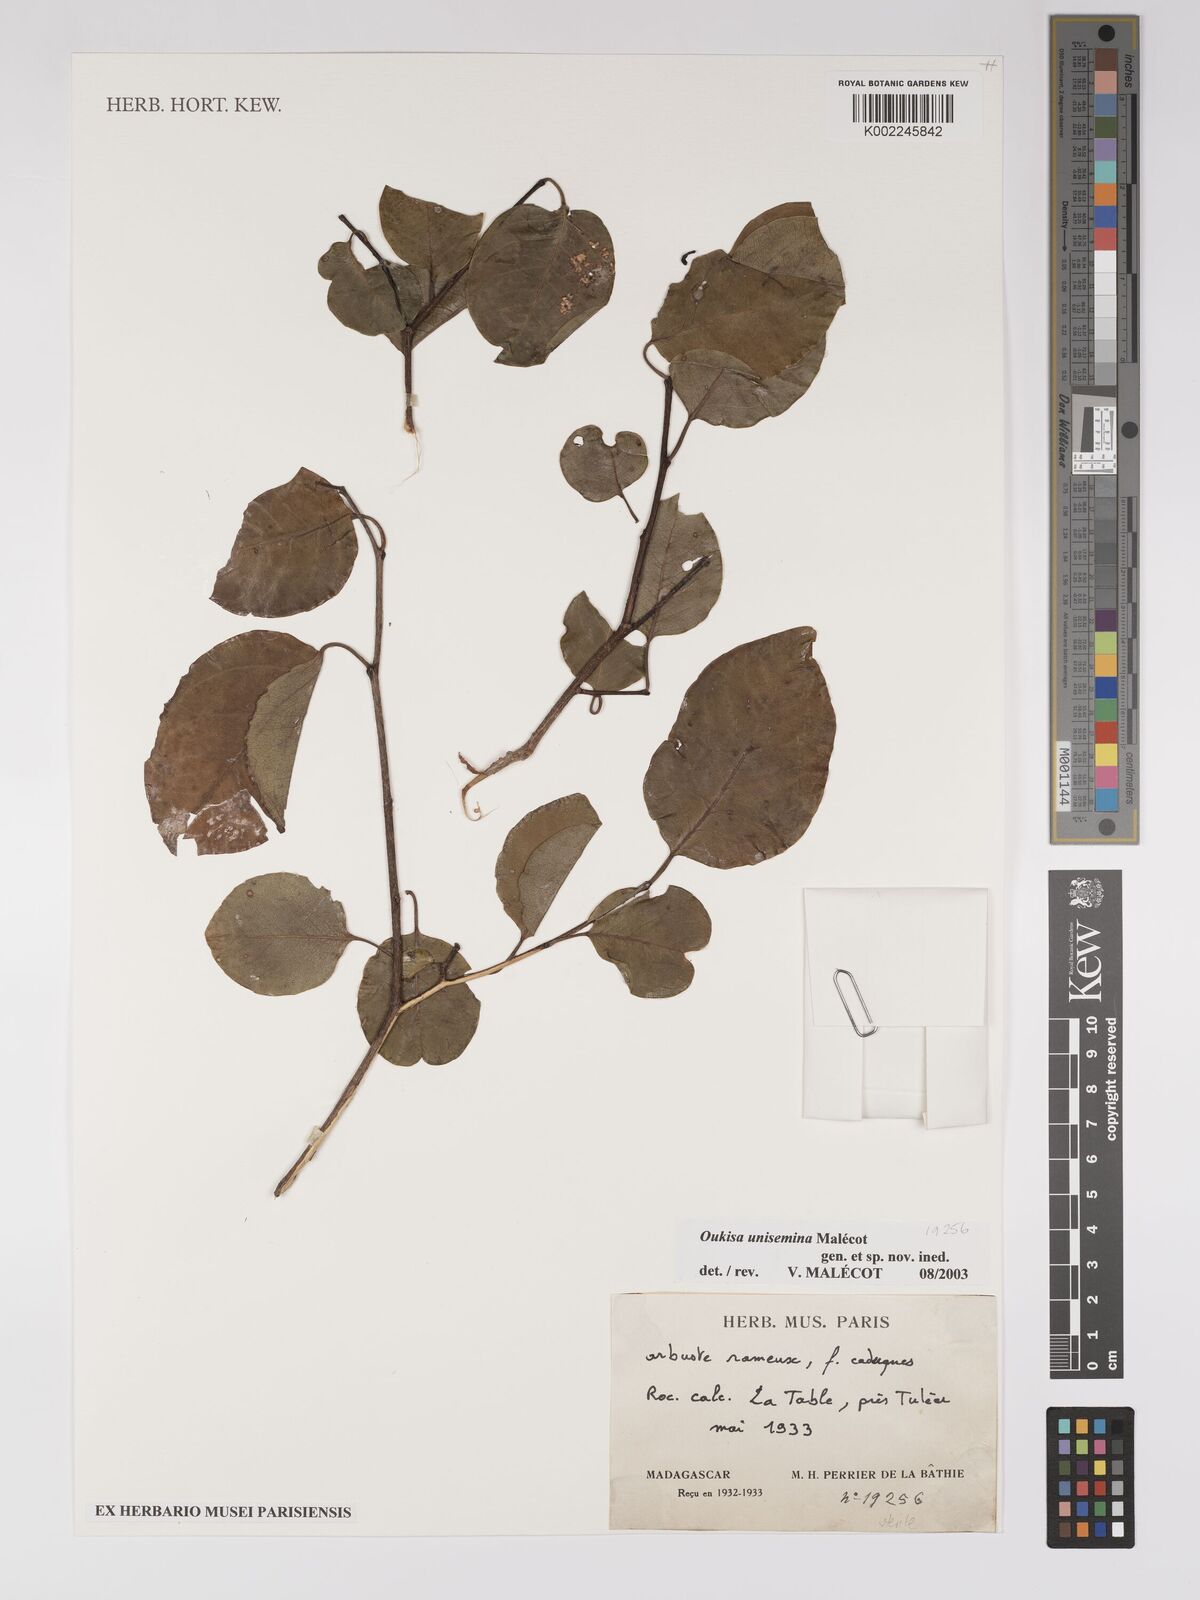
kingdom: Plantae
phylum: Tracheophyta
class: Magnoliopsida
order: Malpighiales
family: Euphorbiaceae
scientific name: Euphorbiaceae
